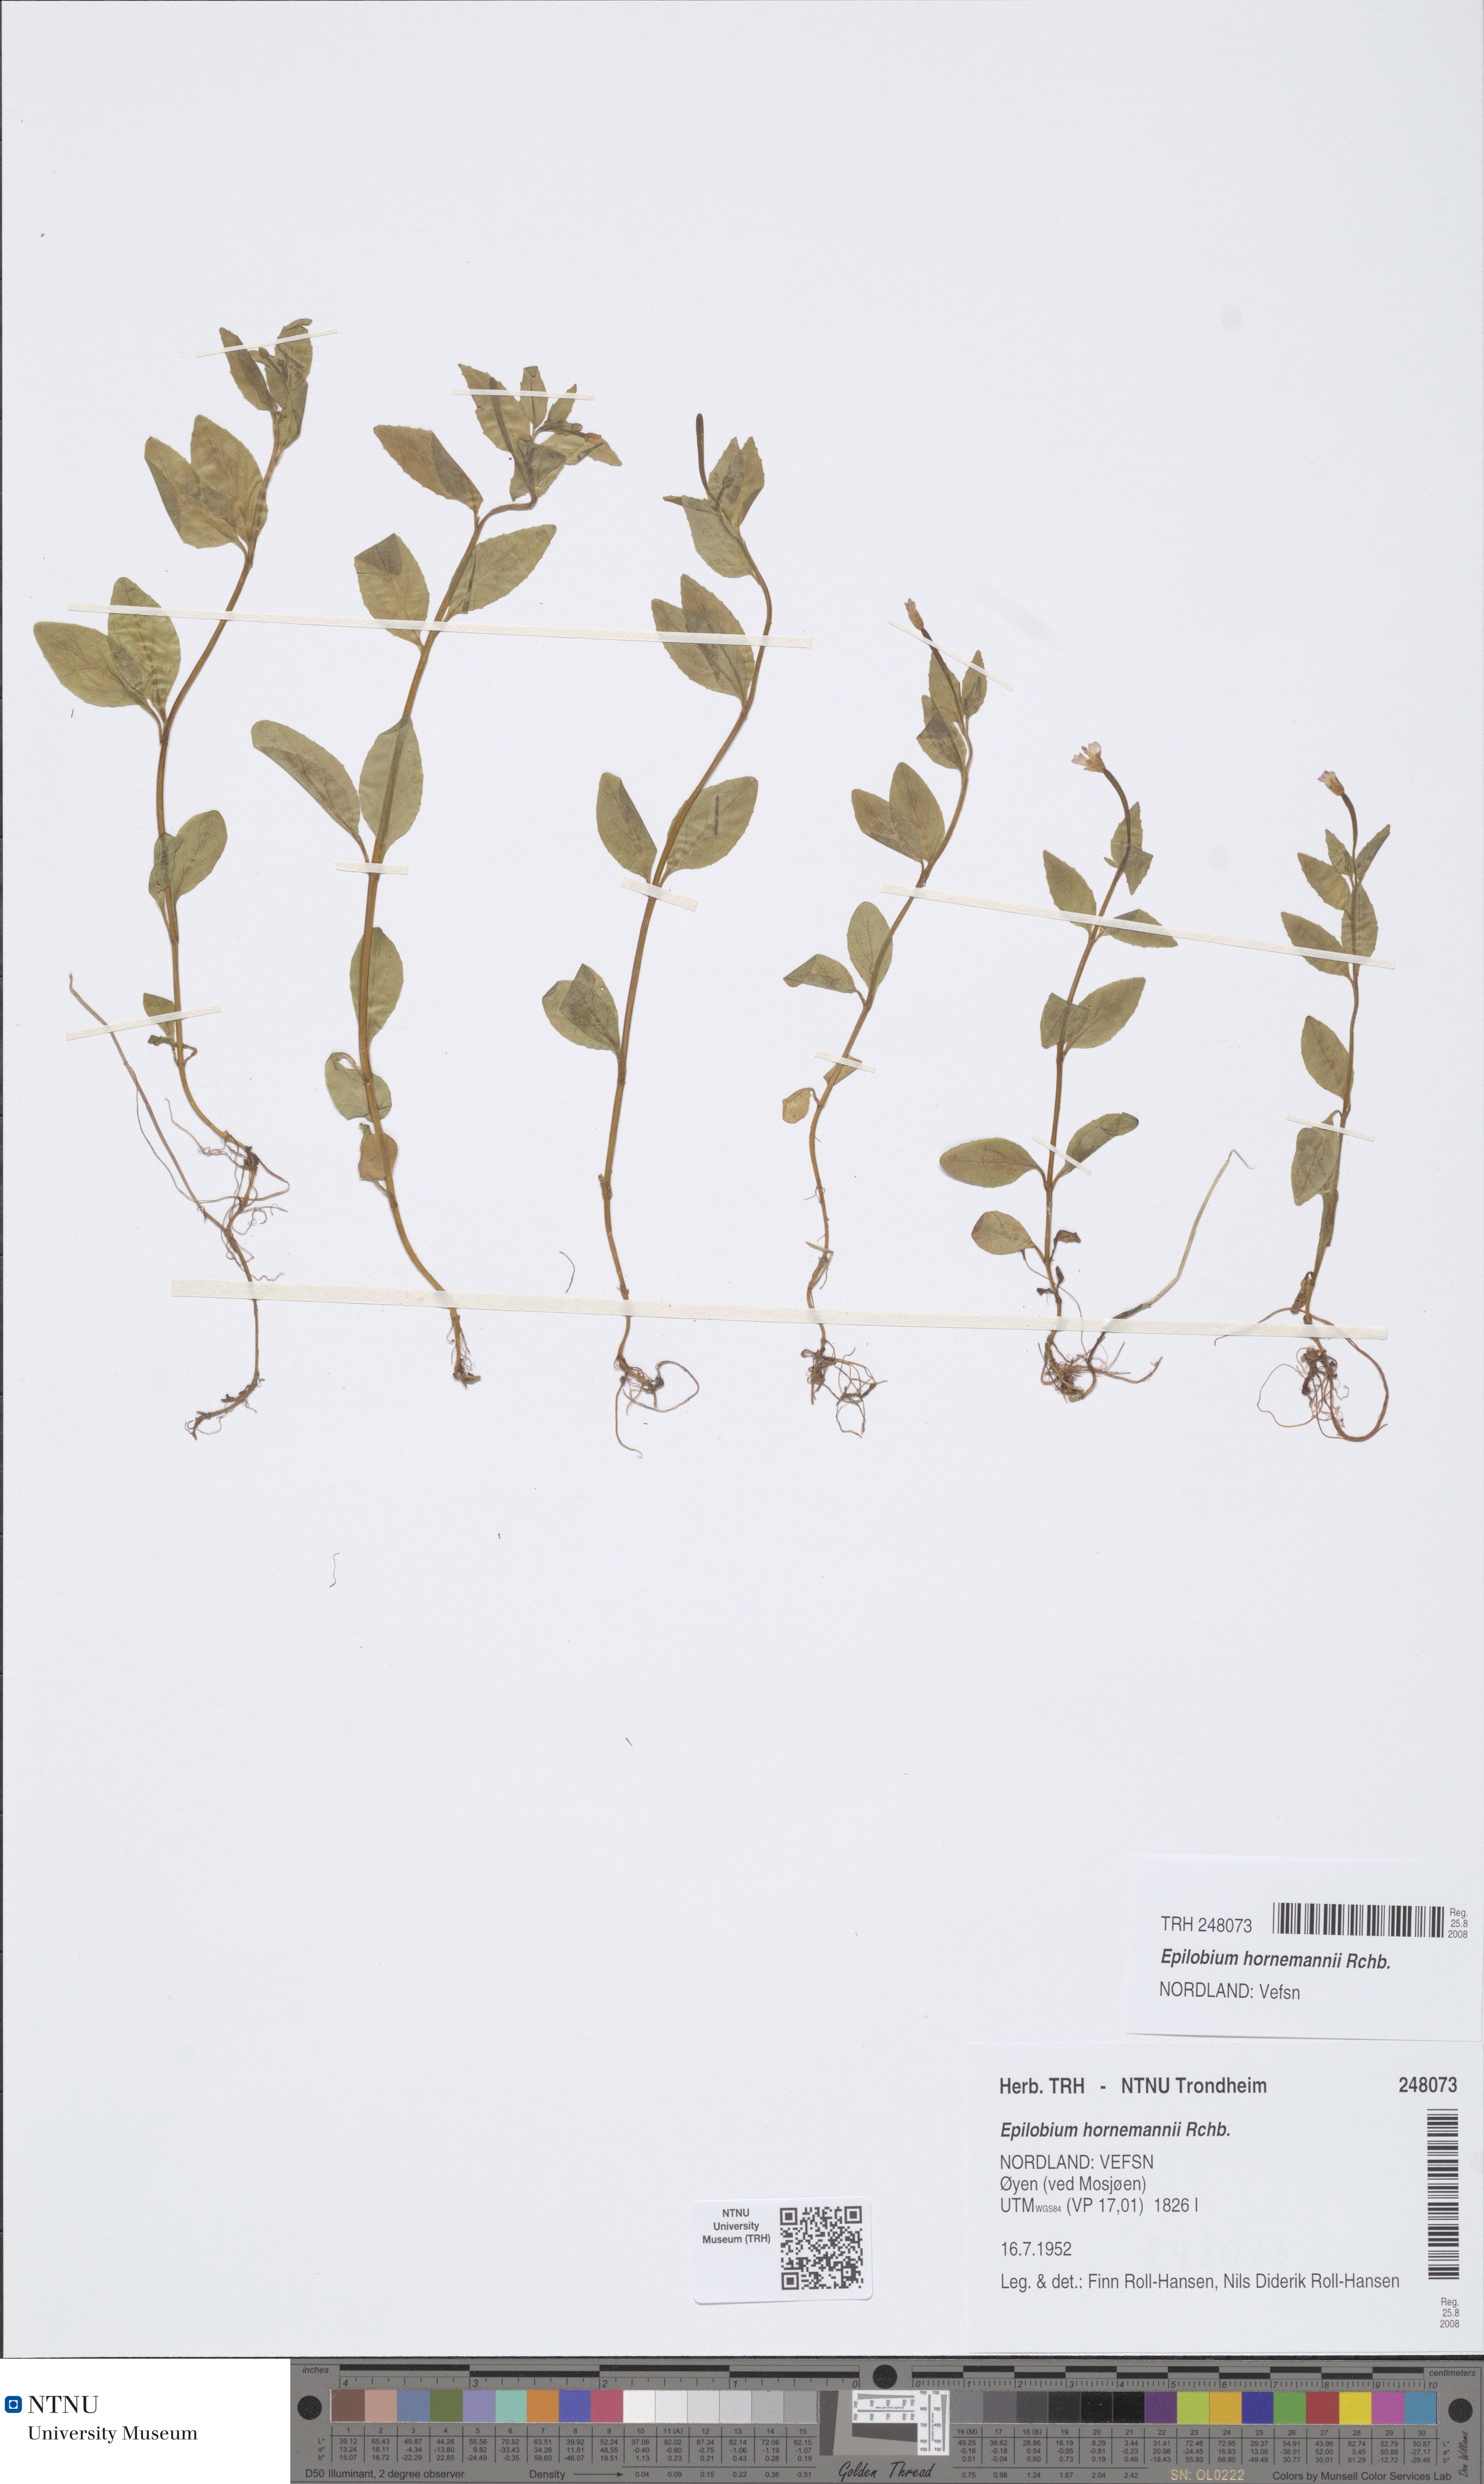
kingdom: Plantae
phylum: Tracheophyta
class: Magnoliopsida
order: Myrtales
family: Onagraceae
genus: Epilobium
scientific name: Epilobium hornemannii
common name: Hornemann's willowherb
